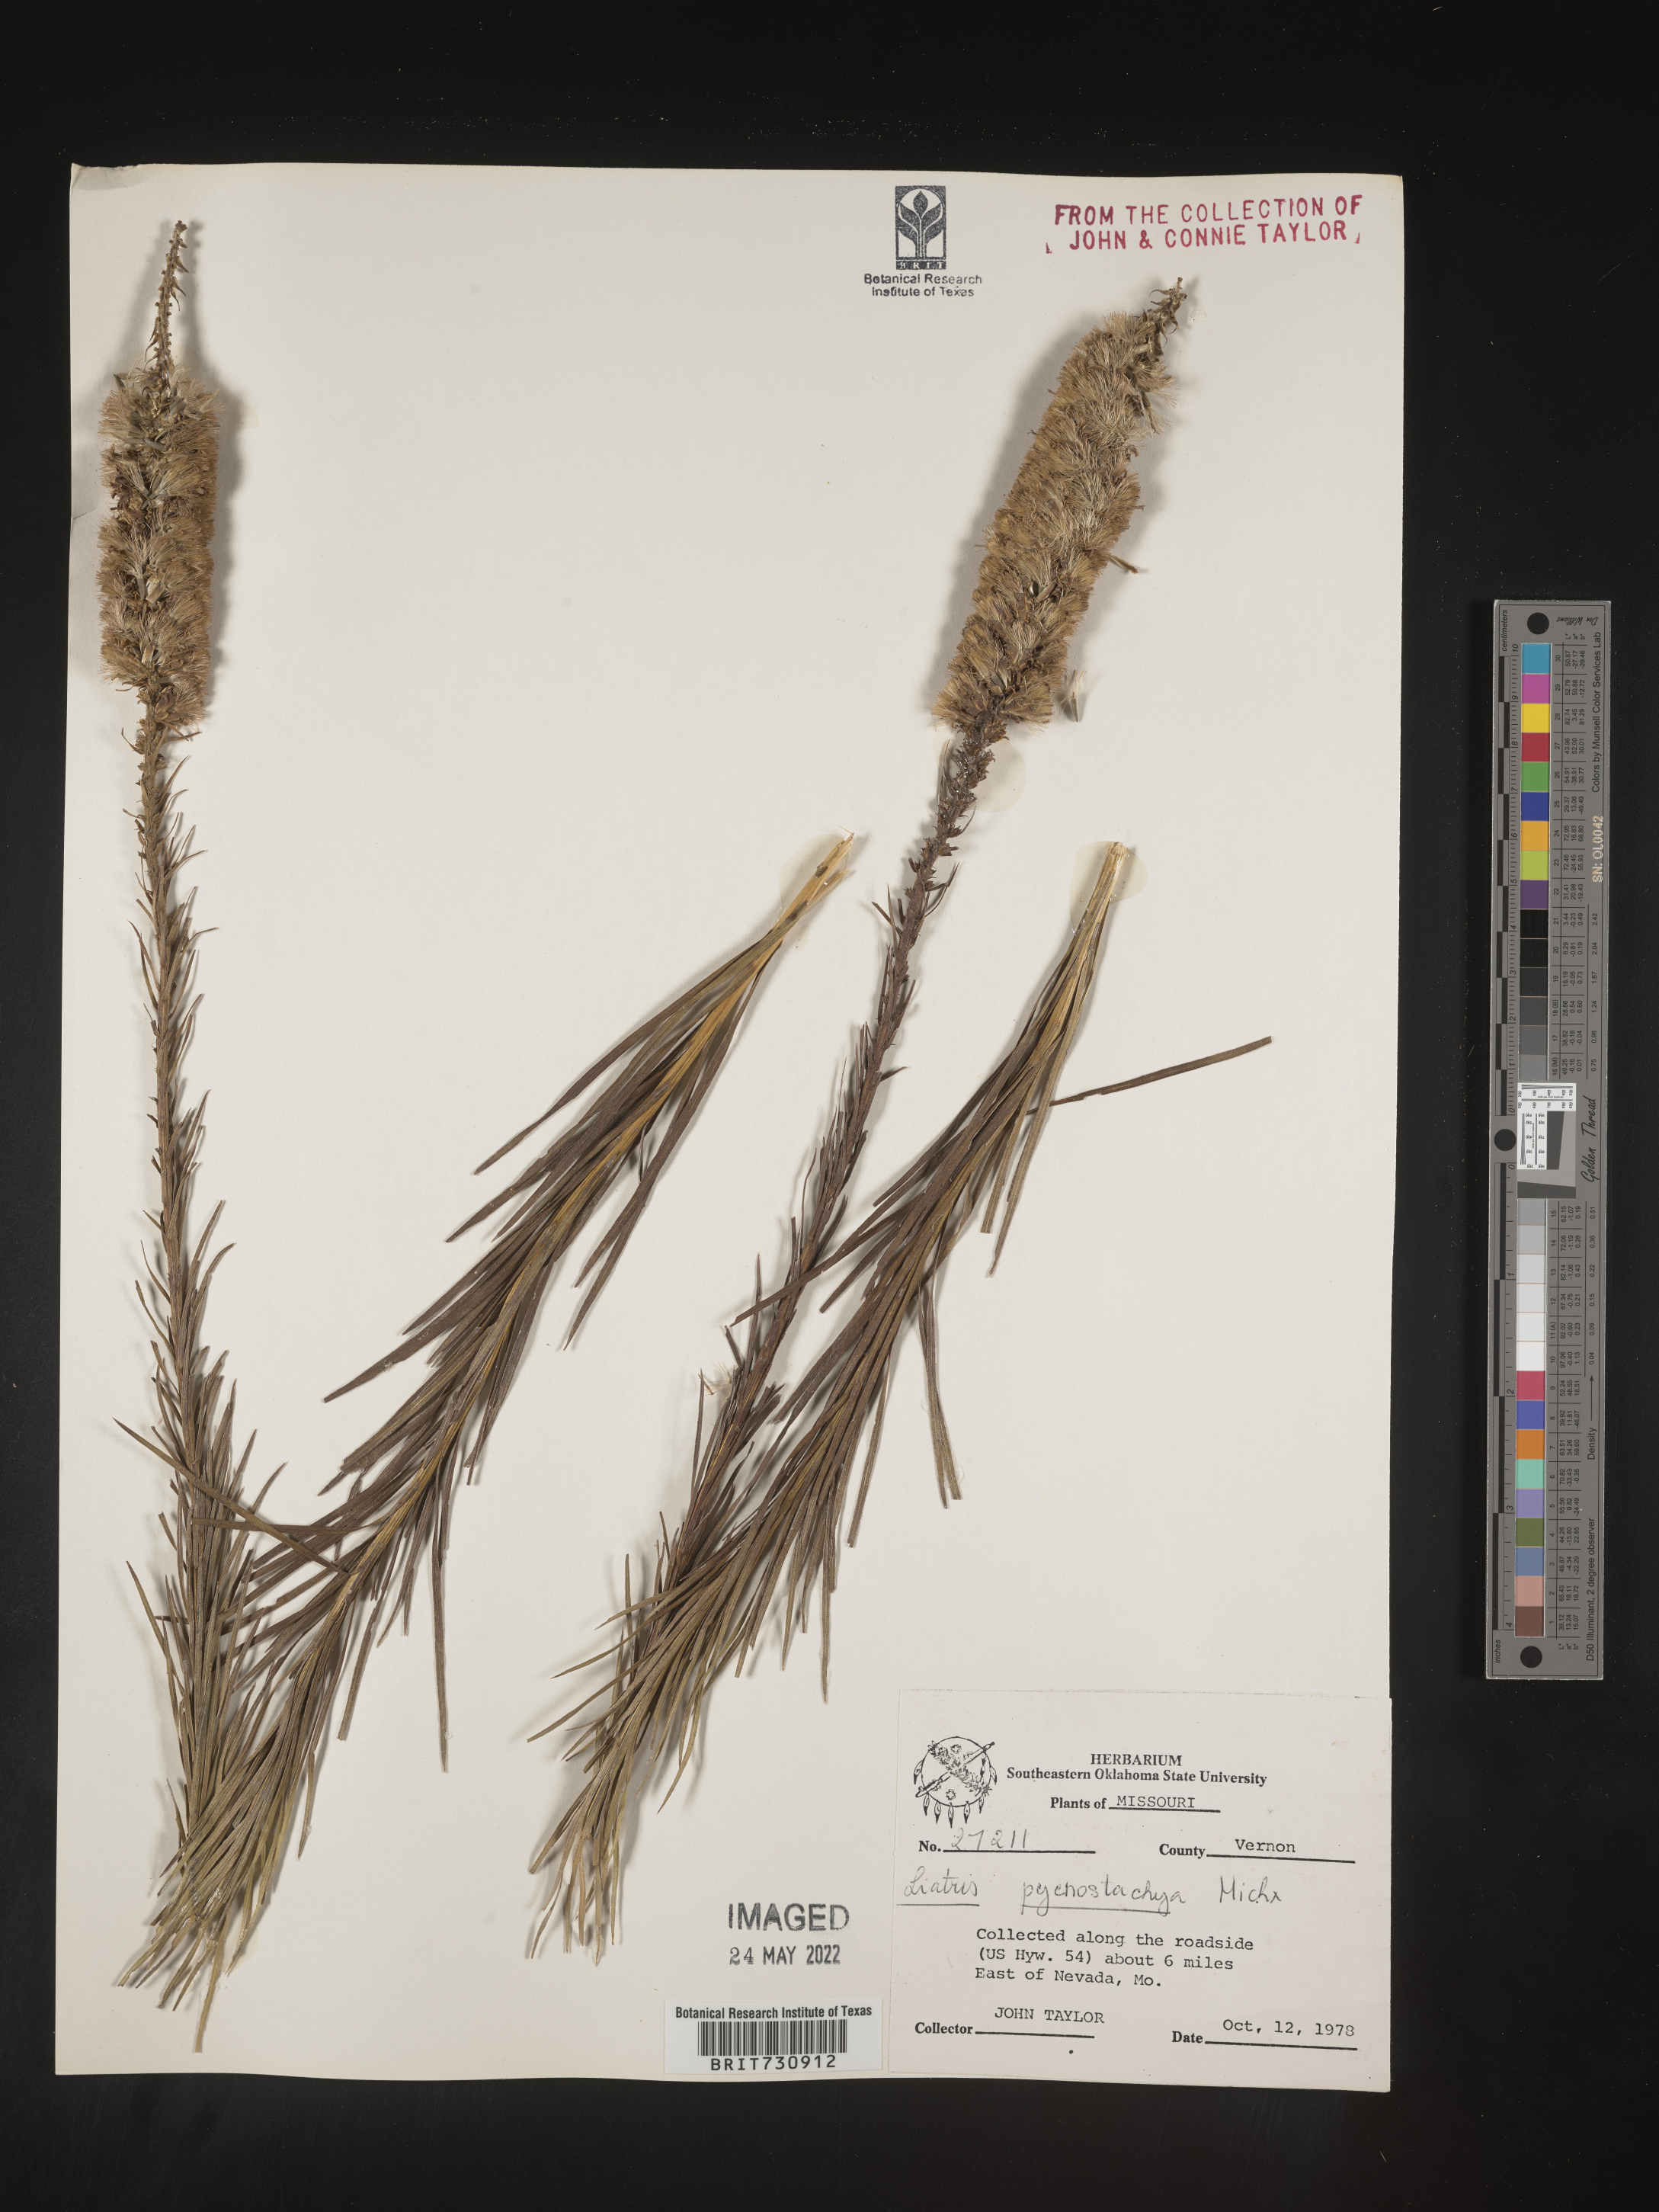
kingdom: Plantae
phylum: Tracheophyta
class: Magnoliopsida
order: Asterales
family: Asteraceae
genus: Liatris
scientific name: Liatris pycnostachya
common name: Cattail gayfeather
